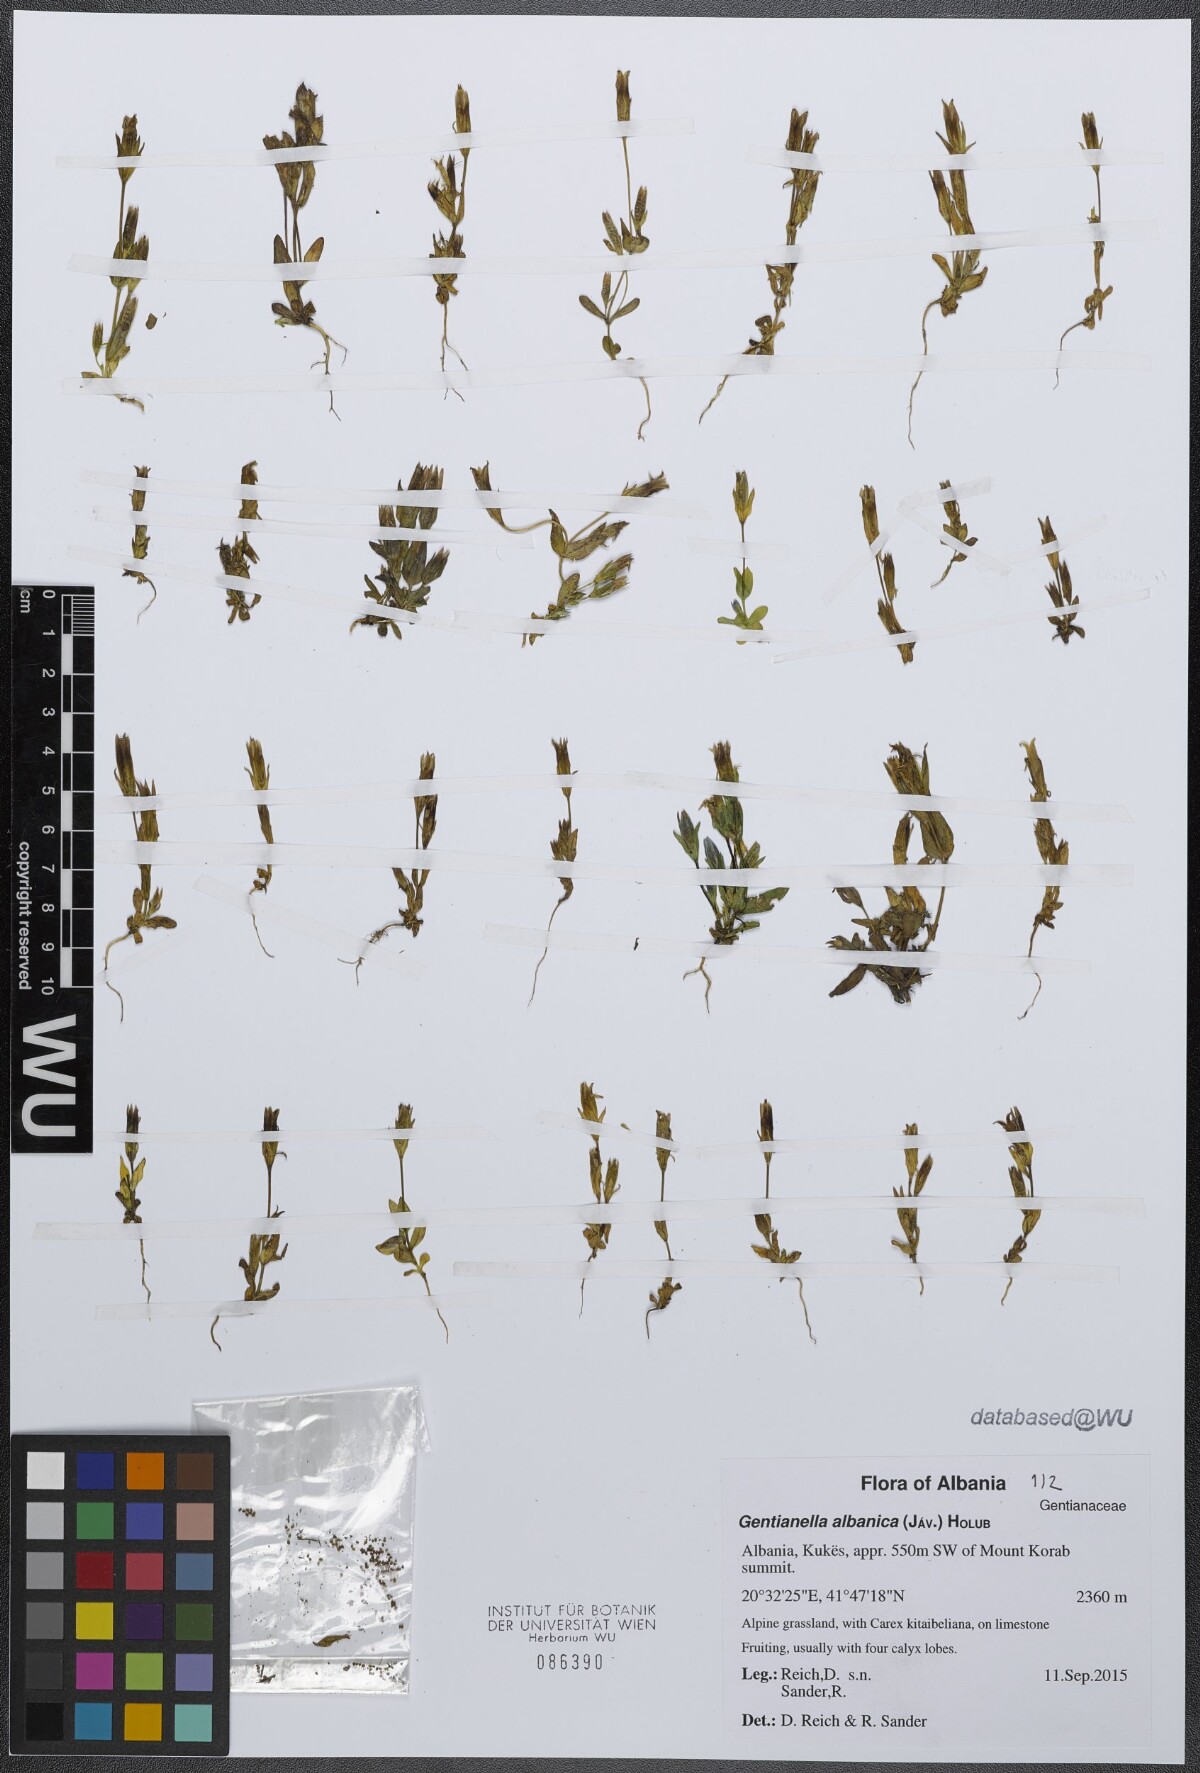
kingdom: Plantae
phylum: Tracheophyta
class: Magnoliopsida
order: Gentianales
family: Gentianaceae
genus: Gentianella
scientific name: Gentianella albanica
